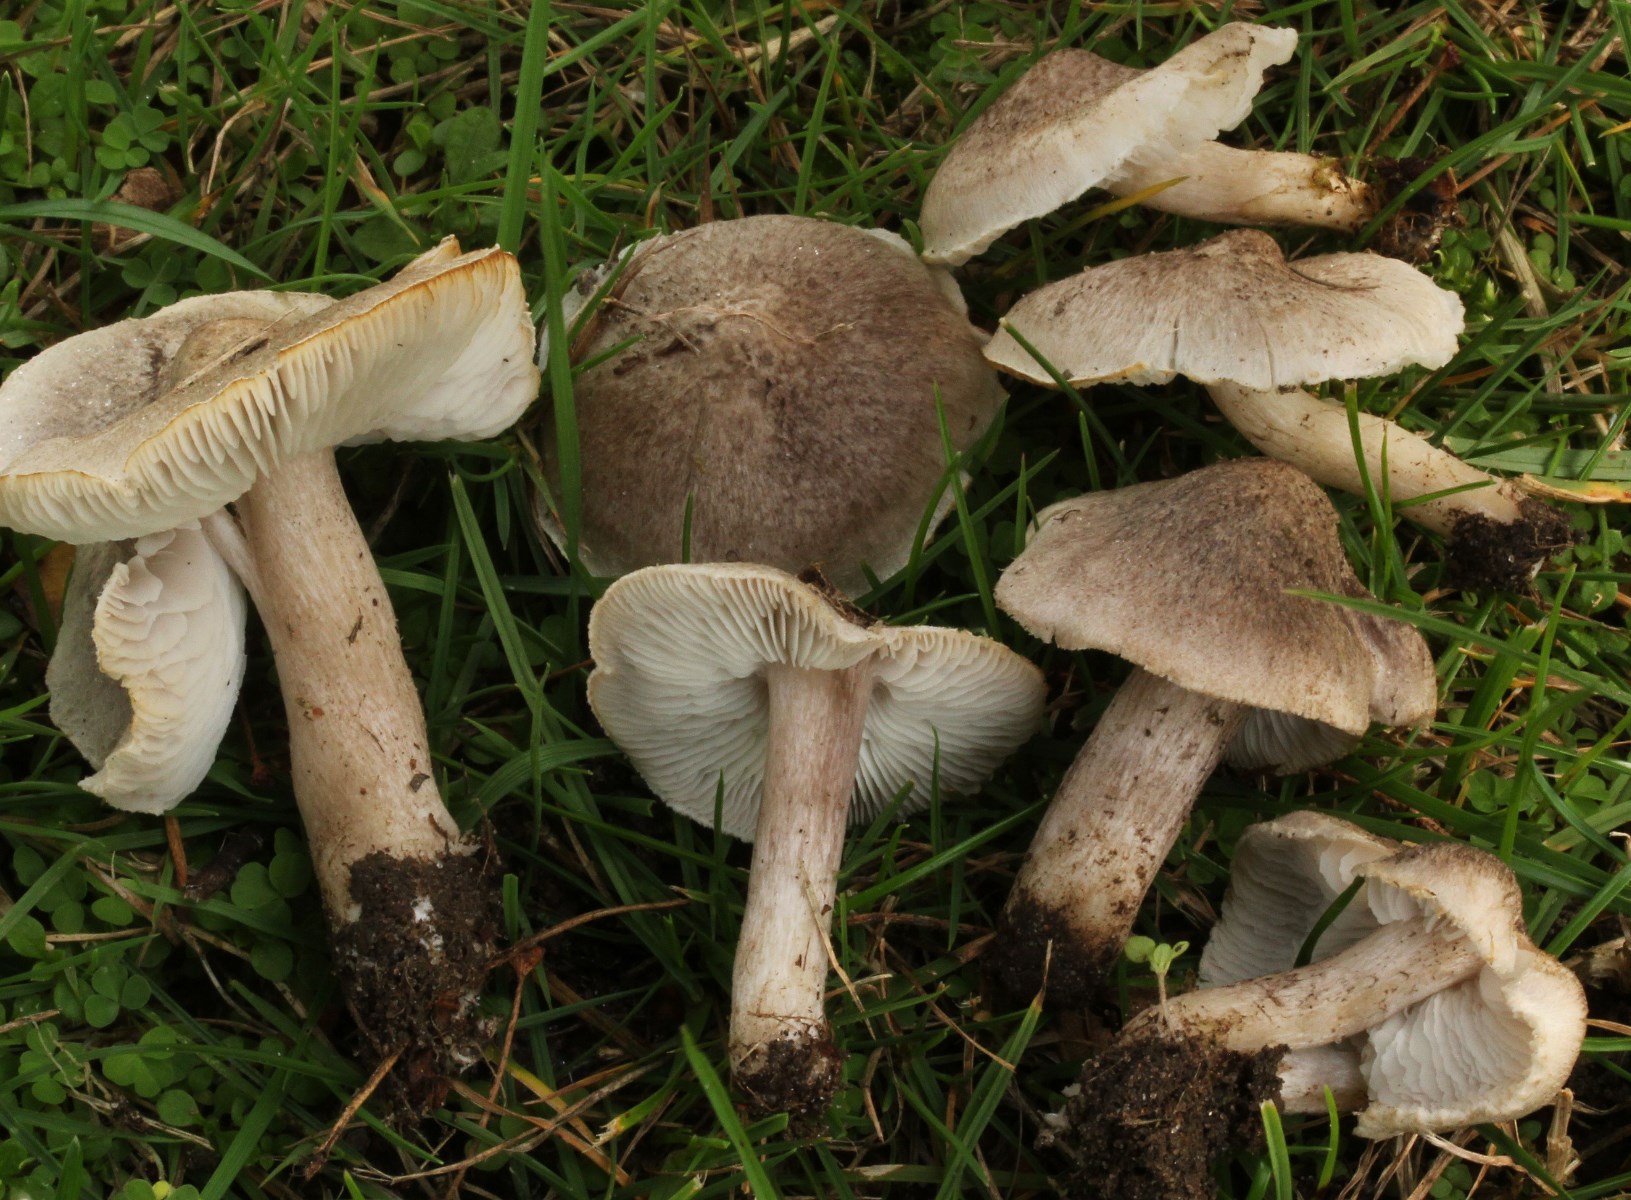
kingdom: Fungi
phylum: Basidiomycota
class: Agaricomycetes
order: Agaricales
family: Tricholomataceae
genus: Tricholoma
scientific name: Tricholoma argyraceum
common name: slør-ridderhat
